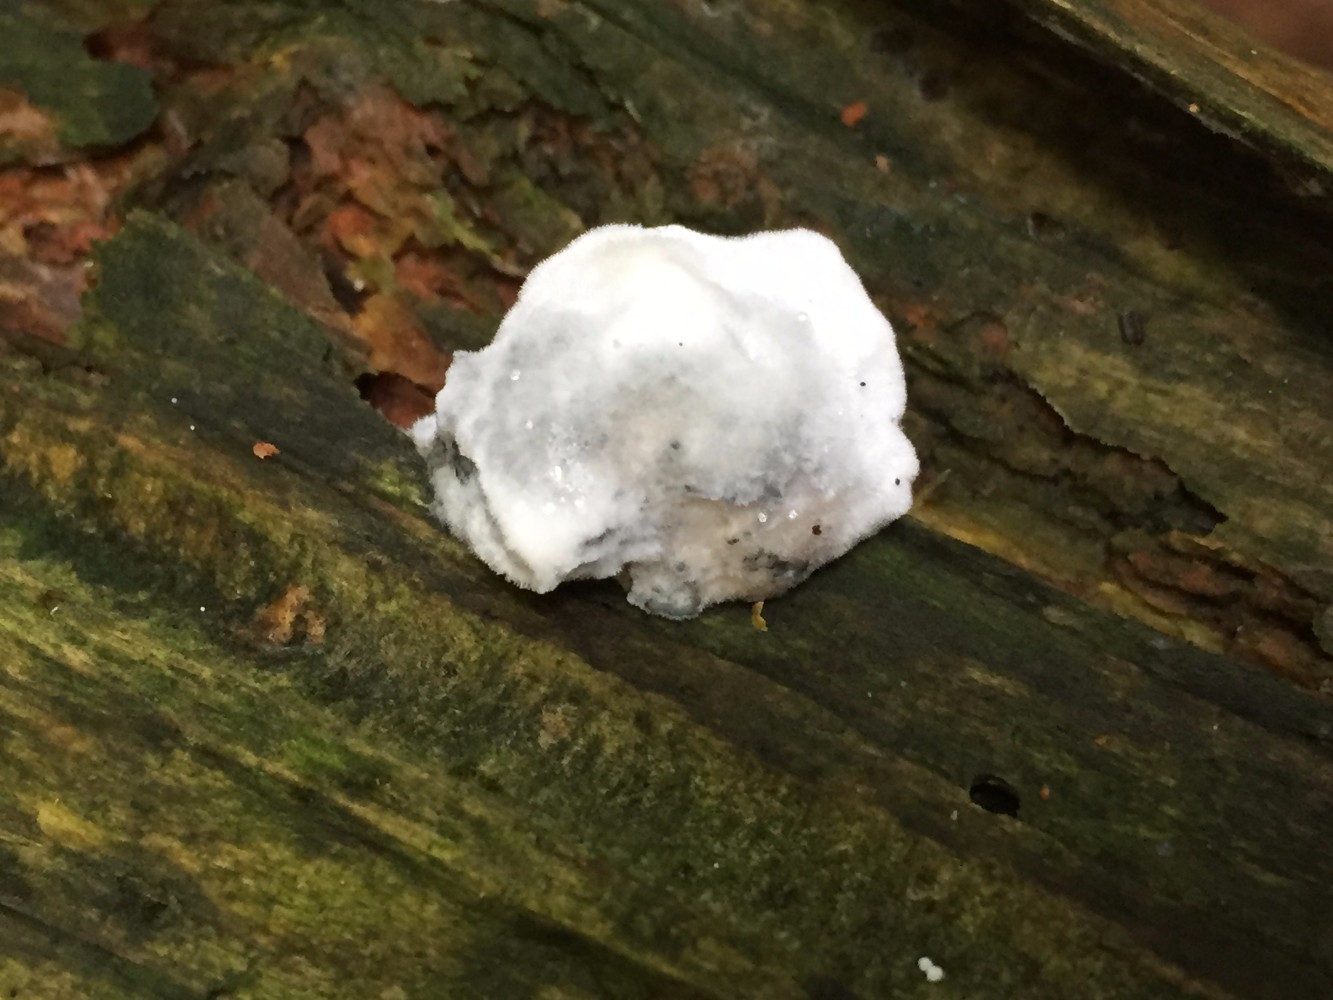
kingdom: Fungi
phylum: Basidiomycota
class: Agaricomycetes
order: Polyporales
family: Polyporaceae
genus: Cyanosporus
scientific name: Cyanosporus caesius
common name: blålig kødporesvamp
